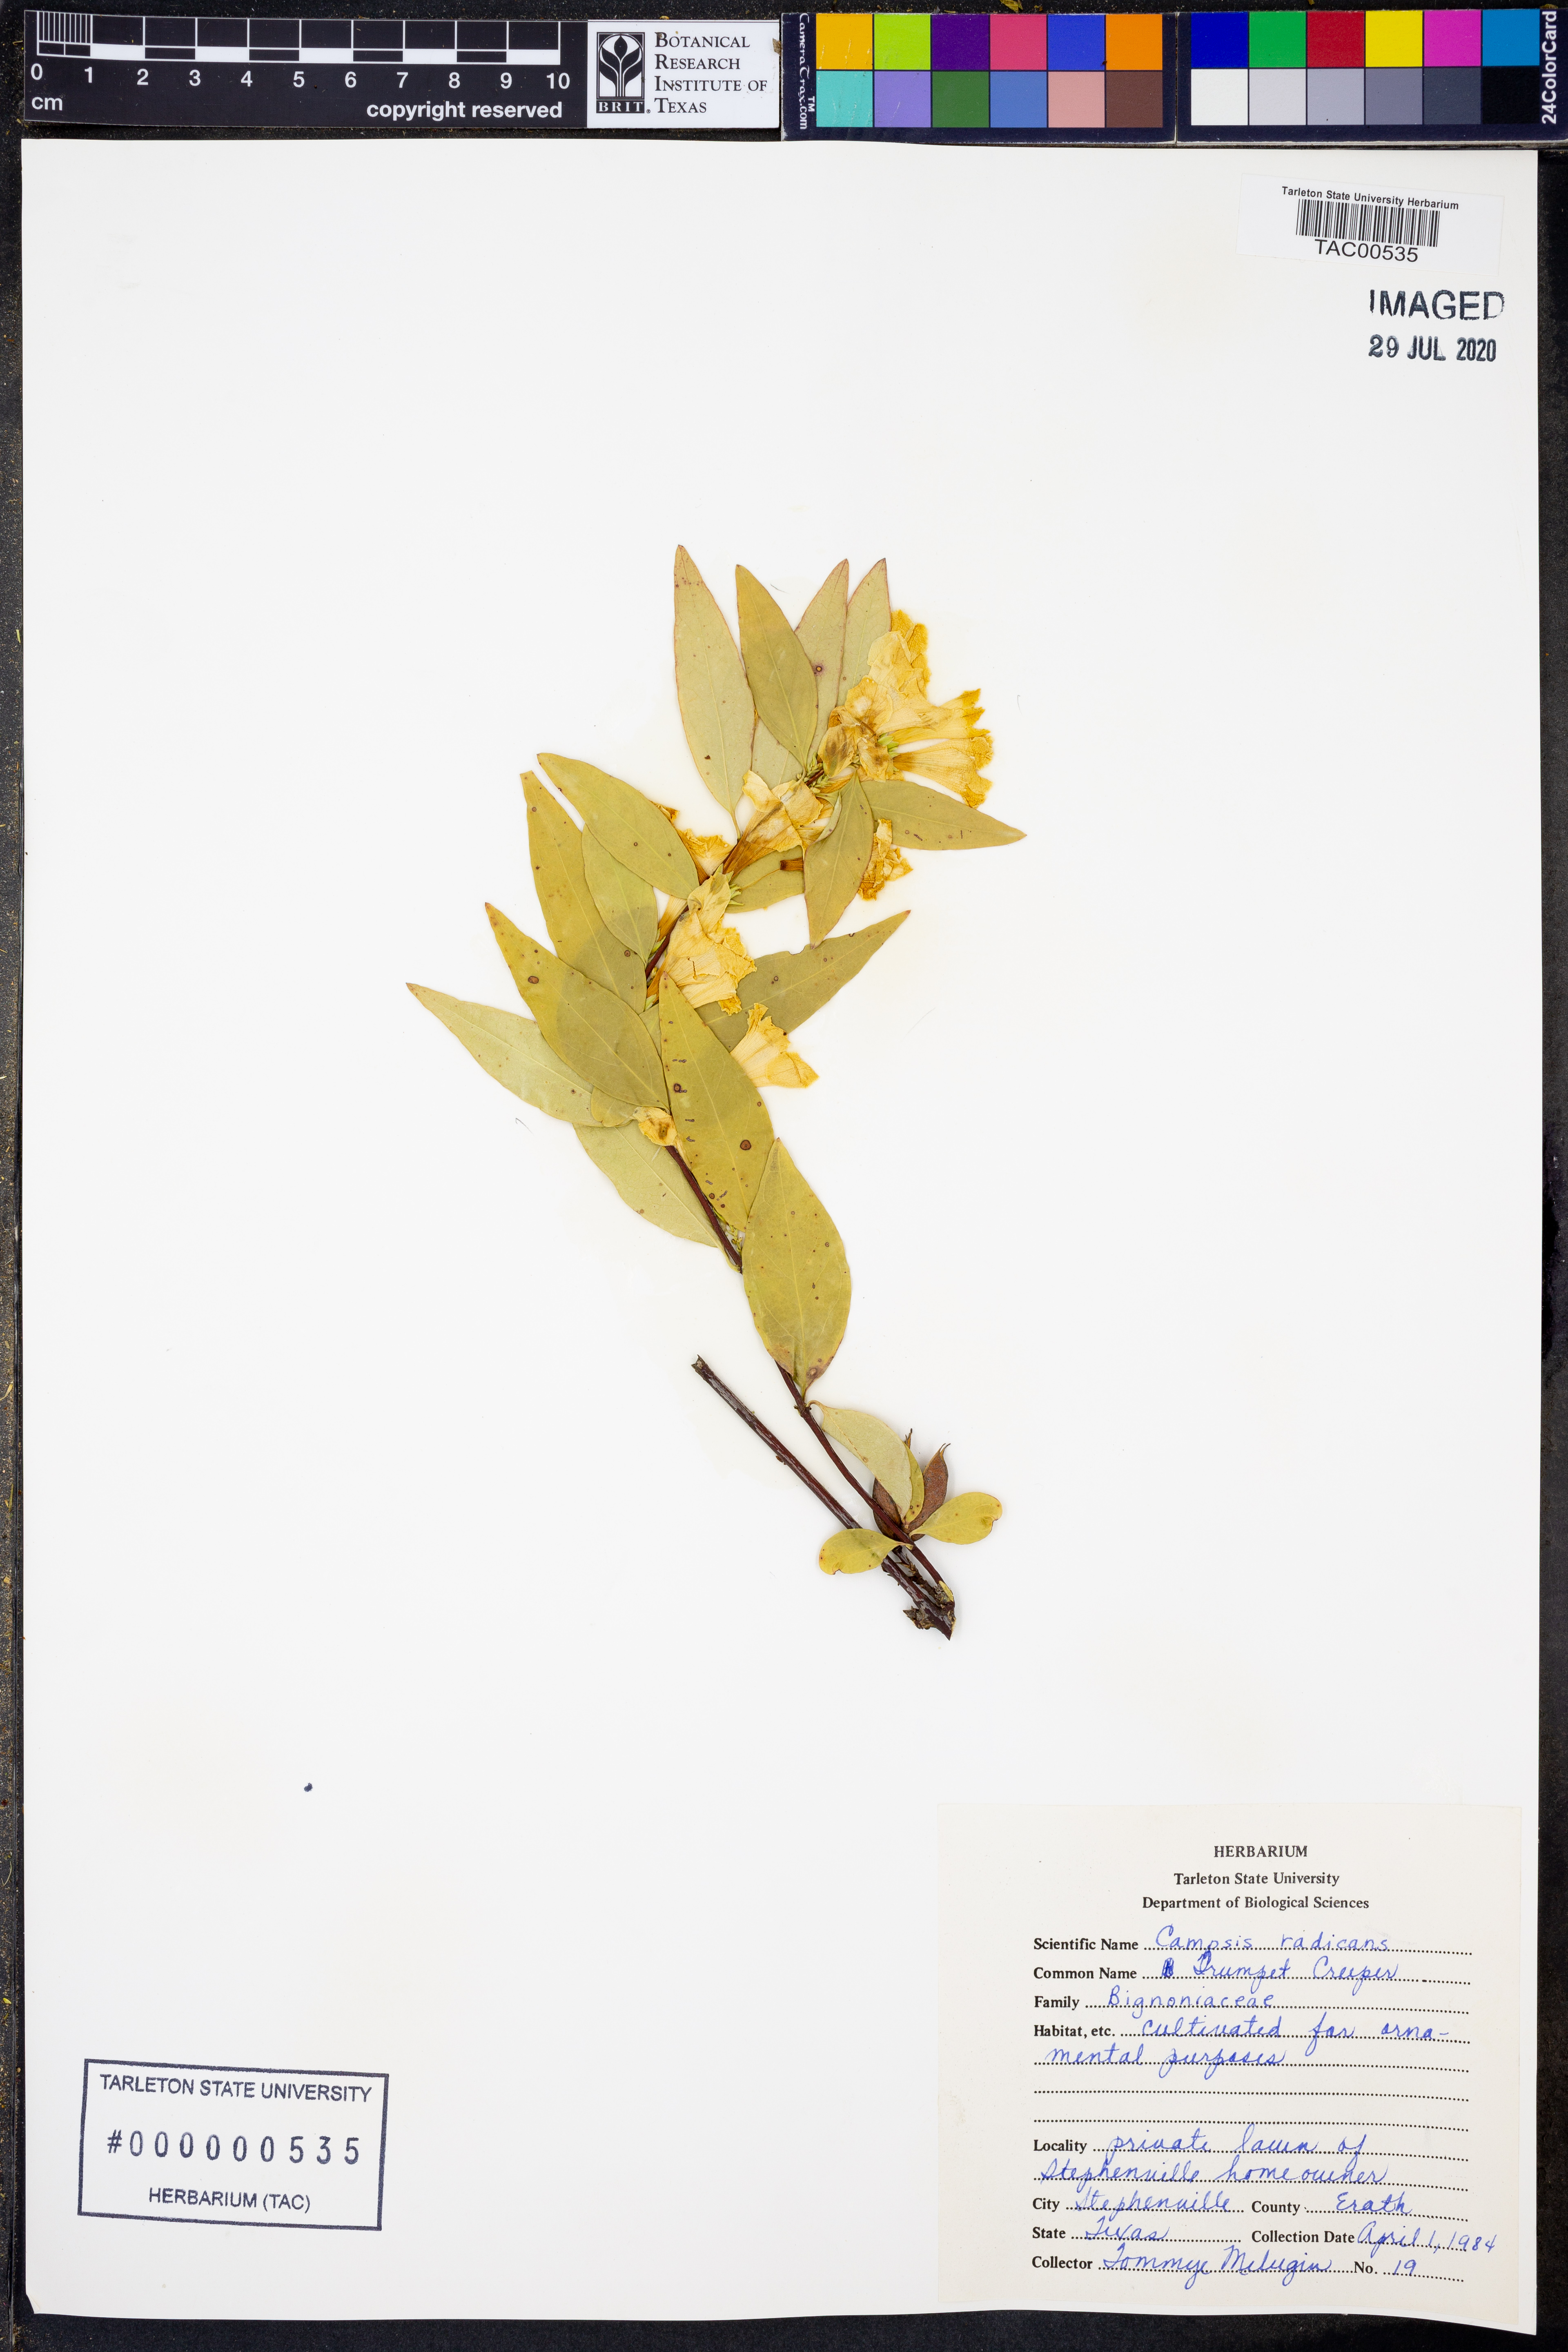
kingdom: Plantae
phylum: Tracheophyta
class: Magnoliopsida
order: Lamiales
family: Bignoniaceae
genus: Campsis
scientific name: Campsis radicans
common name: Trumpet-creeper
